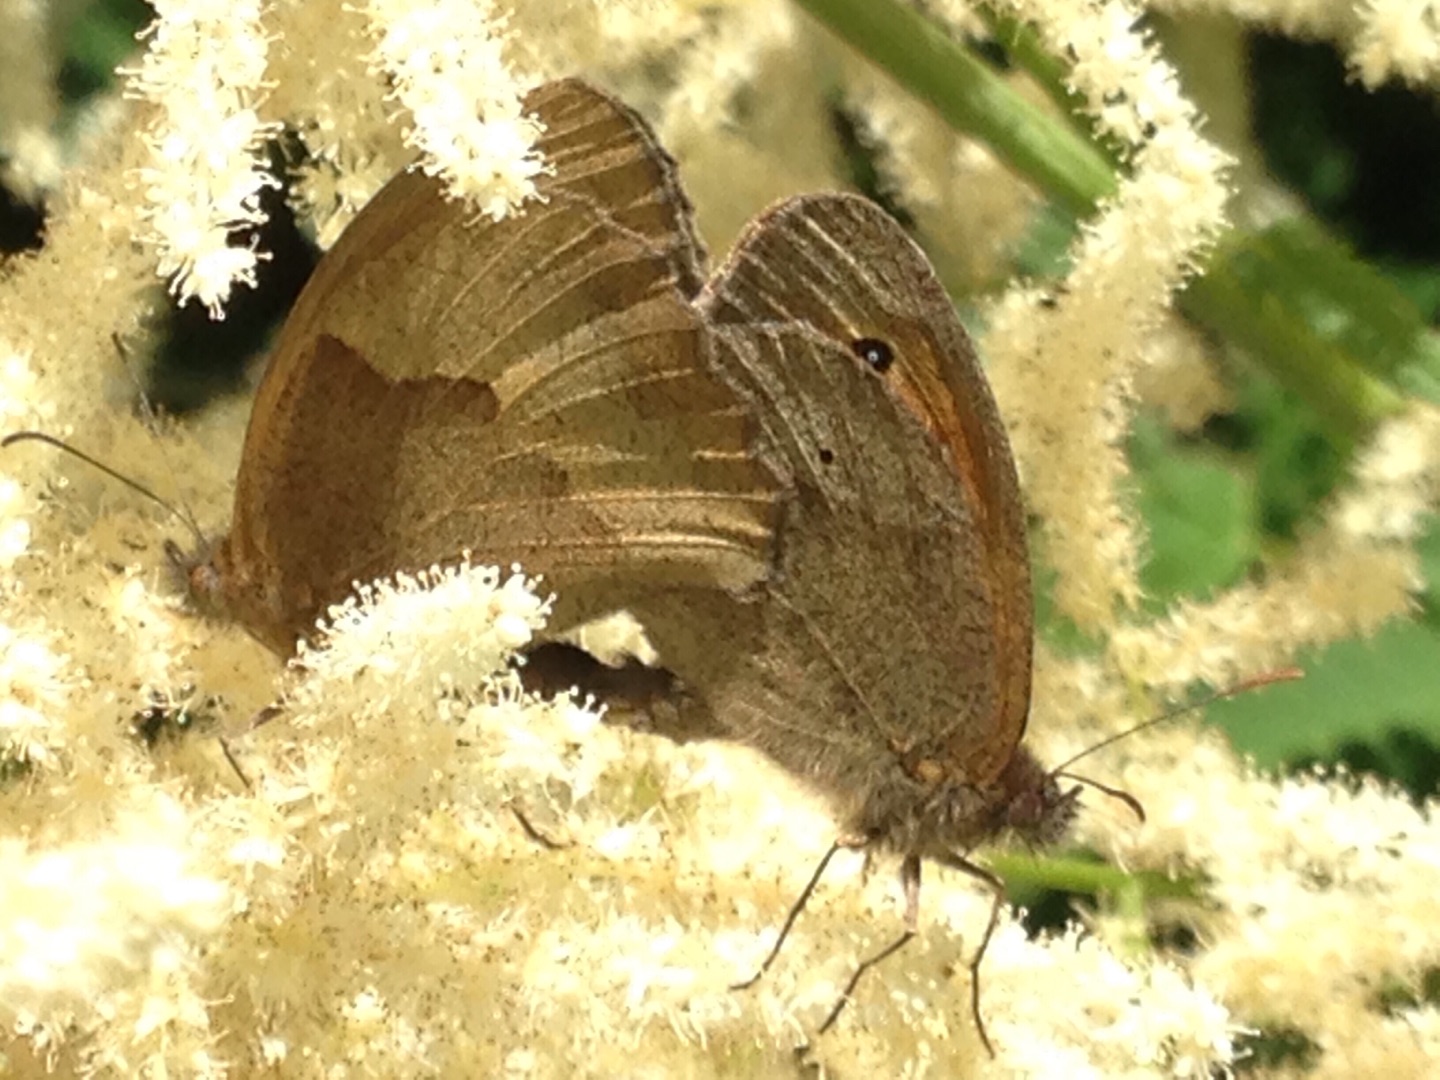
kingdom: Animalia
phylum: Arthropoda
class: Insecta
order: Lepidoptera
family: Nymphalidae
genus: Maniola
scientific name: Maniola jurtina
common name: Græsrandøje
